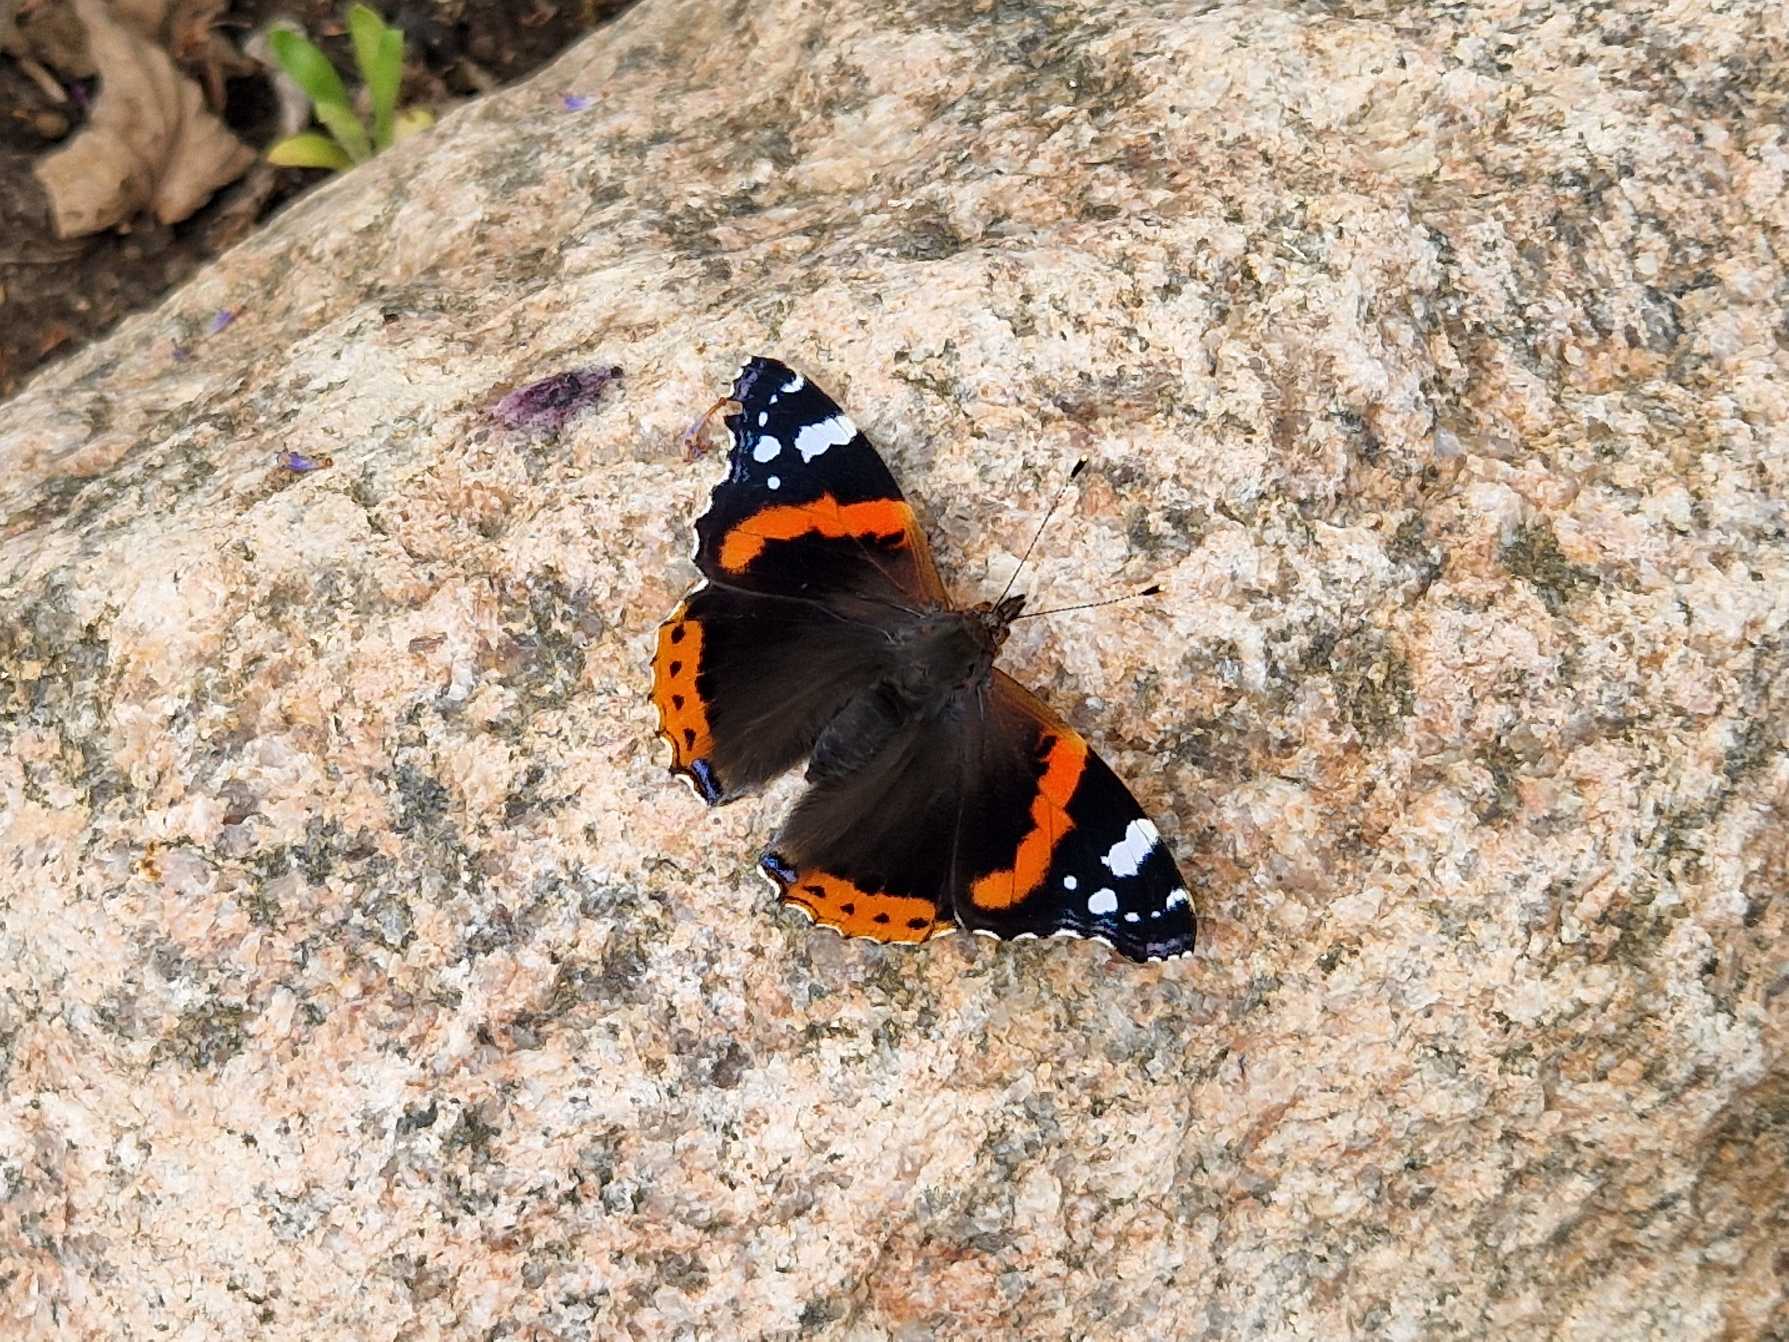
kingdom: Animalia
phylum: Arthropoda
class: Insecta
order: Lepidoptera
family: Nymphalidae
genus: Vanessa
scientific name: Vanessa atalanta
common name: Admiral
